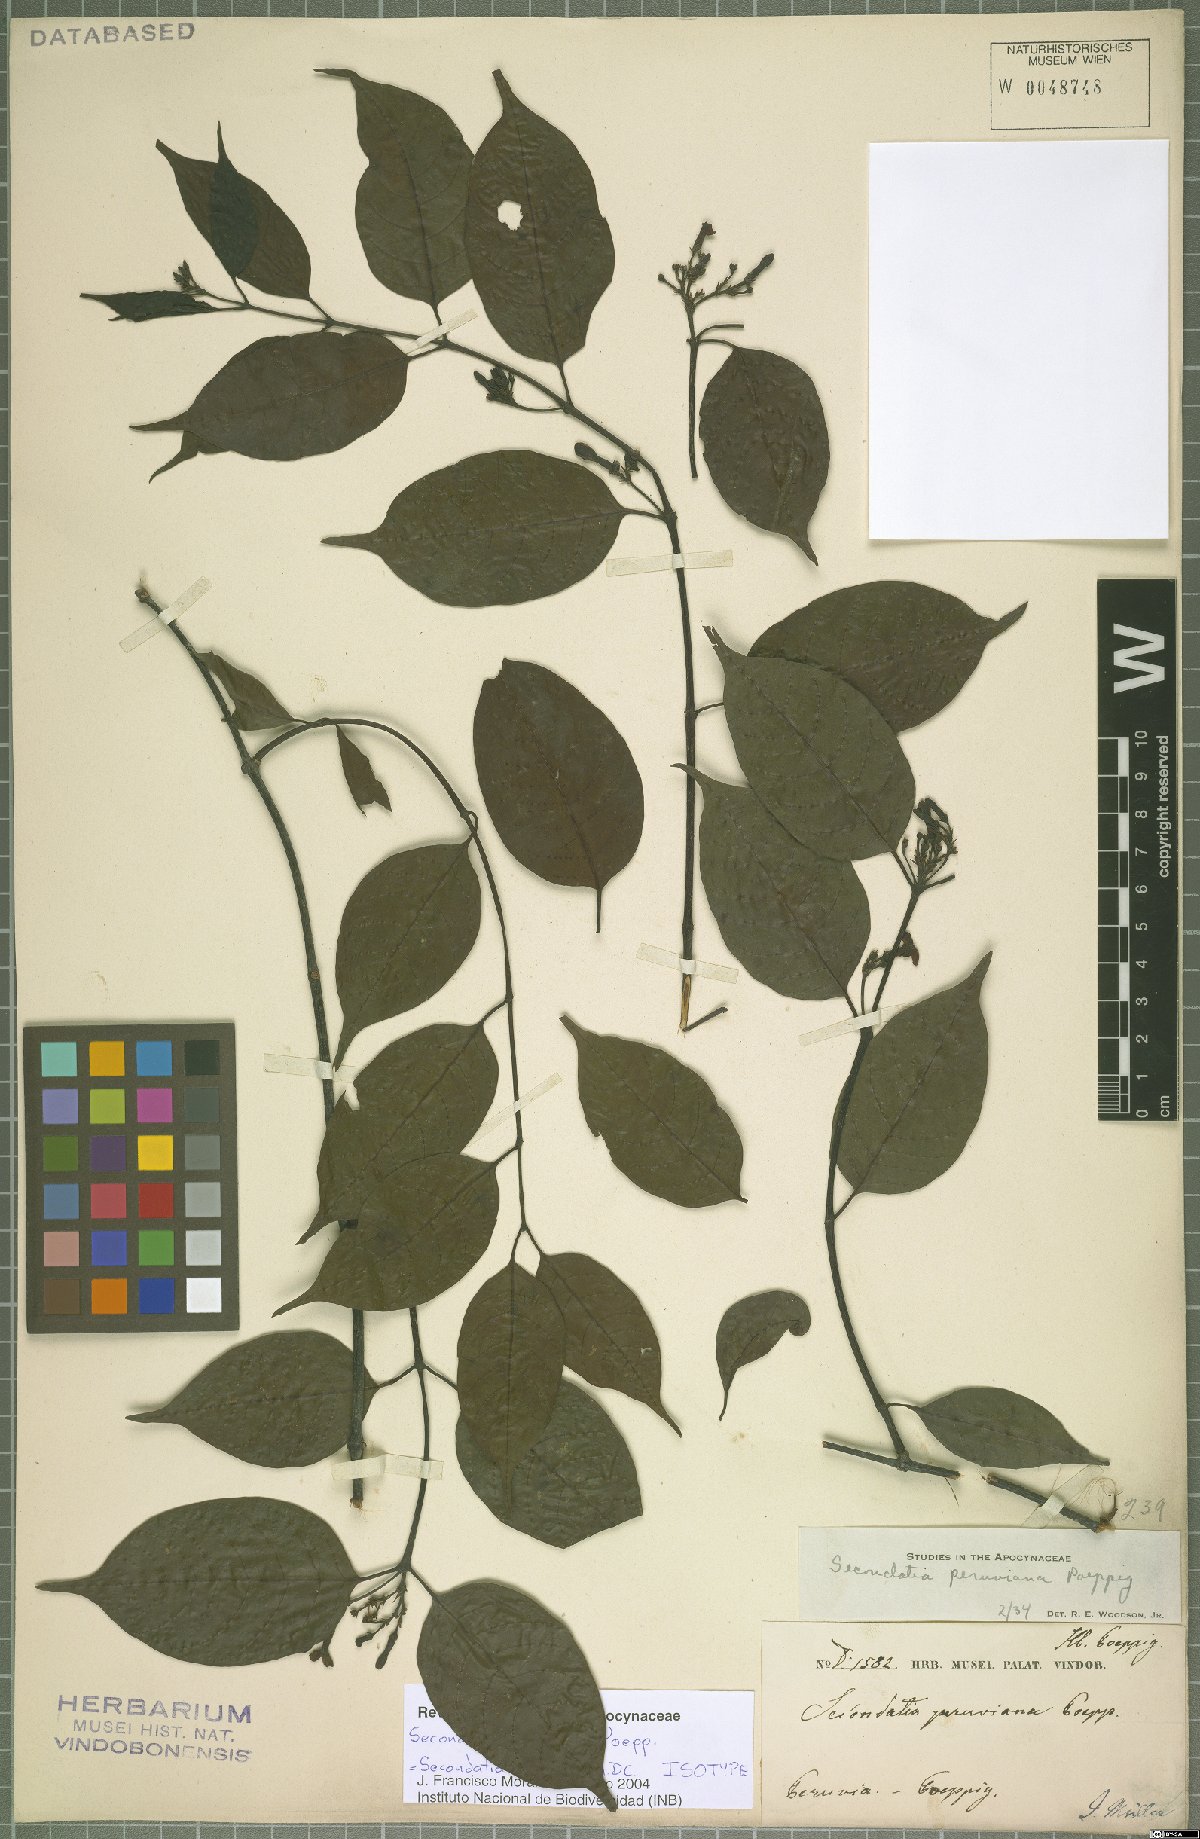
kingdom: Plantae
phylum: Tracheophyta
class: Magnoliopsida
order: Gentianales
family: Apocynaceae
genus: Secondatia
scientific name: Secondatia densiflora
